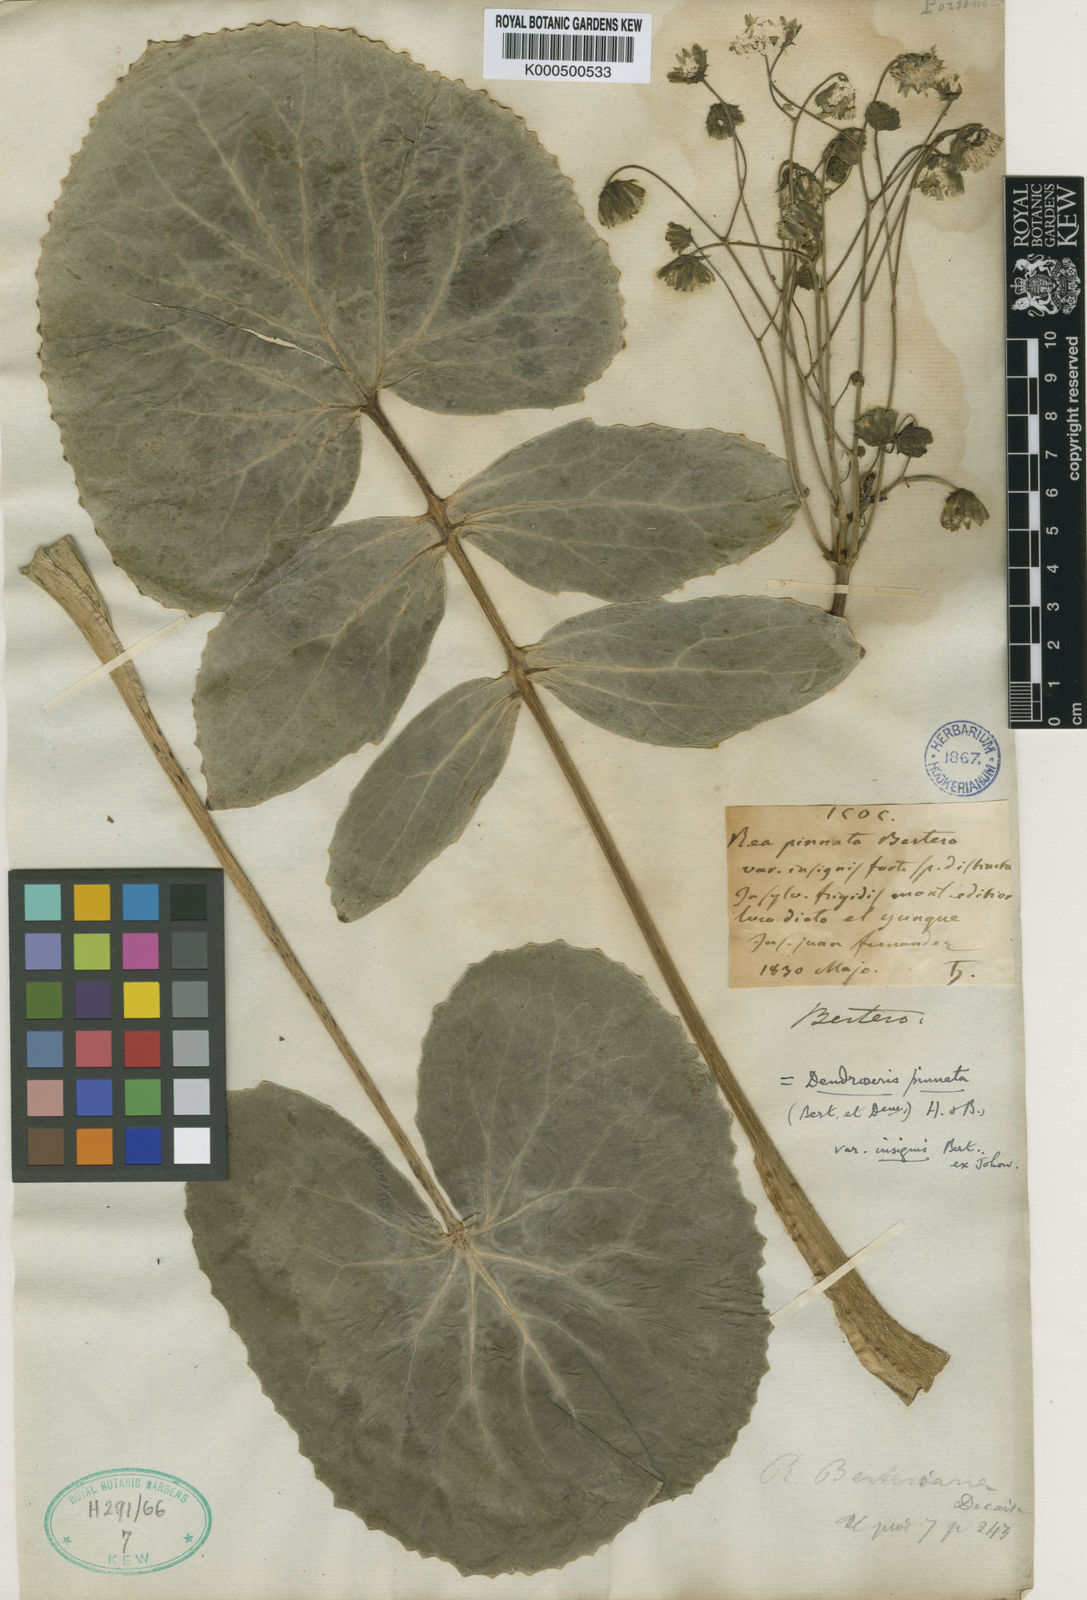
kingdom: Plantae
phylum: Tracheophyta
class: Magnoliopsida
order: Asterales
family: Asteraceae
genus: Sonchus
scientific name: Sonchus berteroanus
